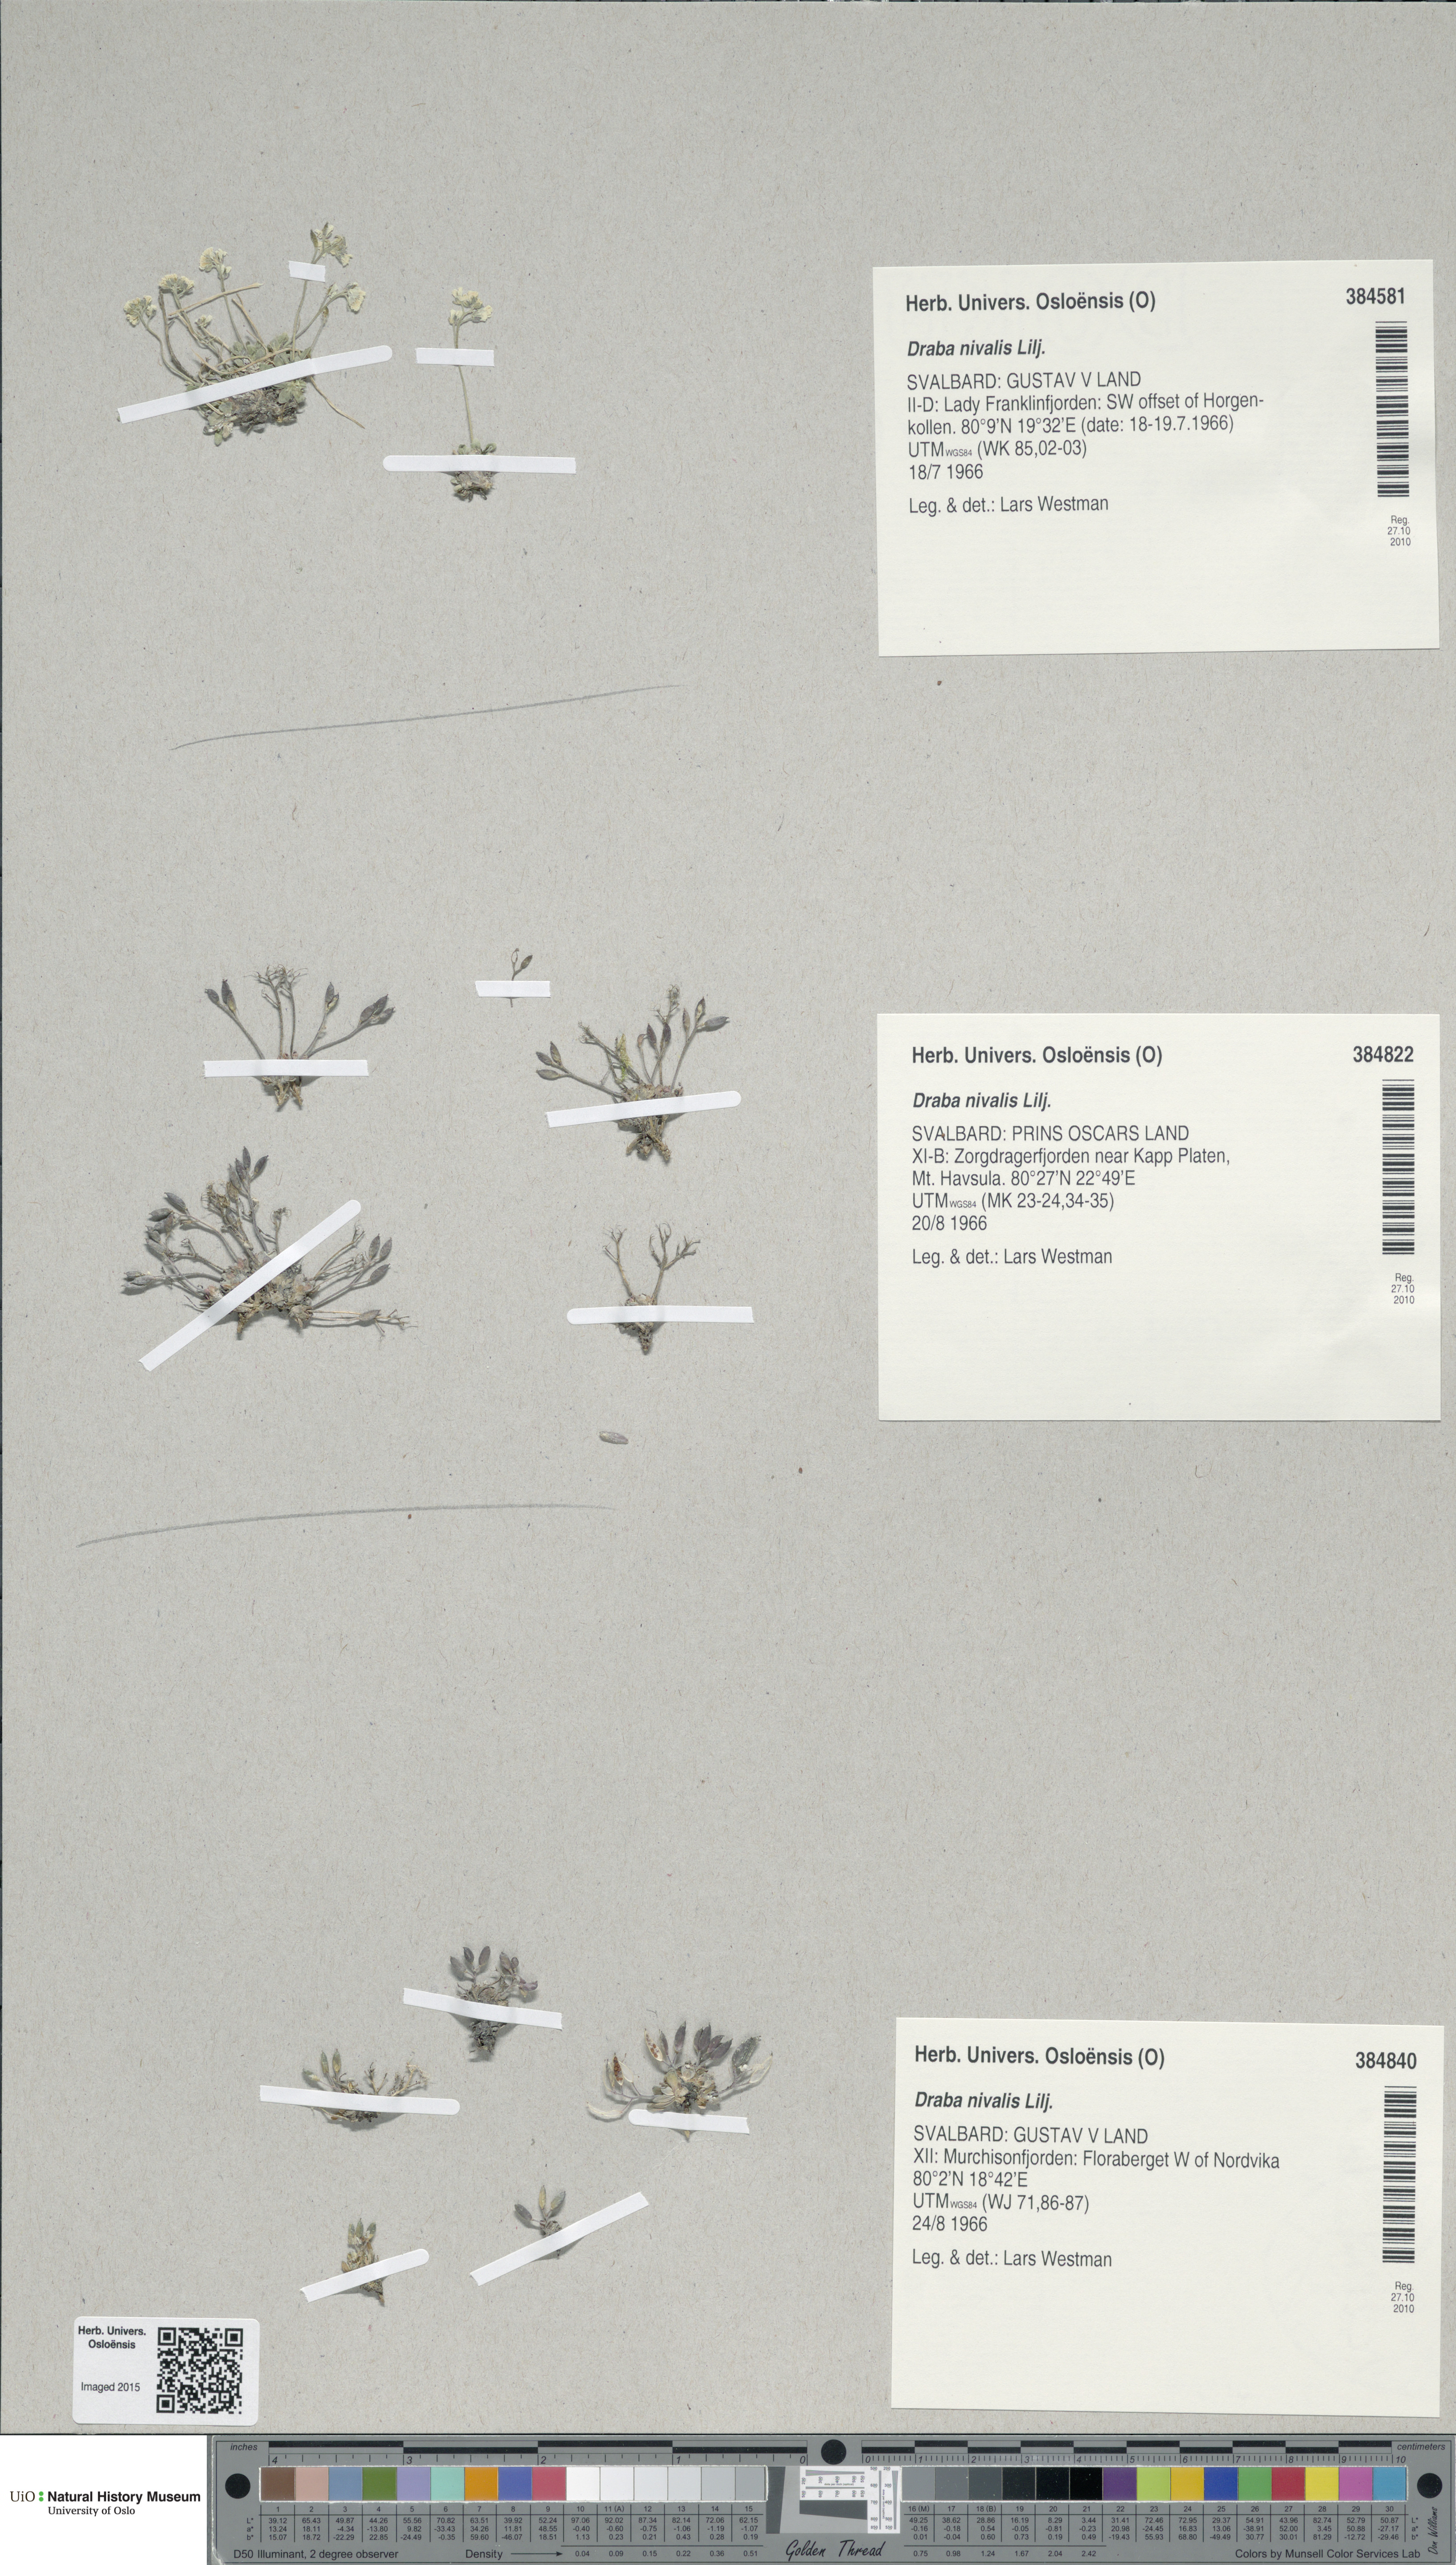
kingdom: Plantae
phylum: Tracheophyta
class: Magnoliopsida
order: Brassicales
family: Brassicaceae
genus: Draba
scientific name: Draba nivalis
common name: Snow draba
